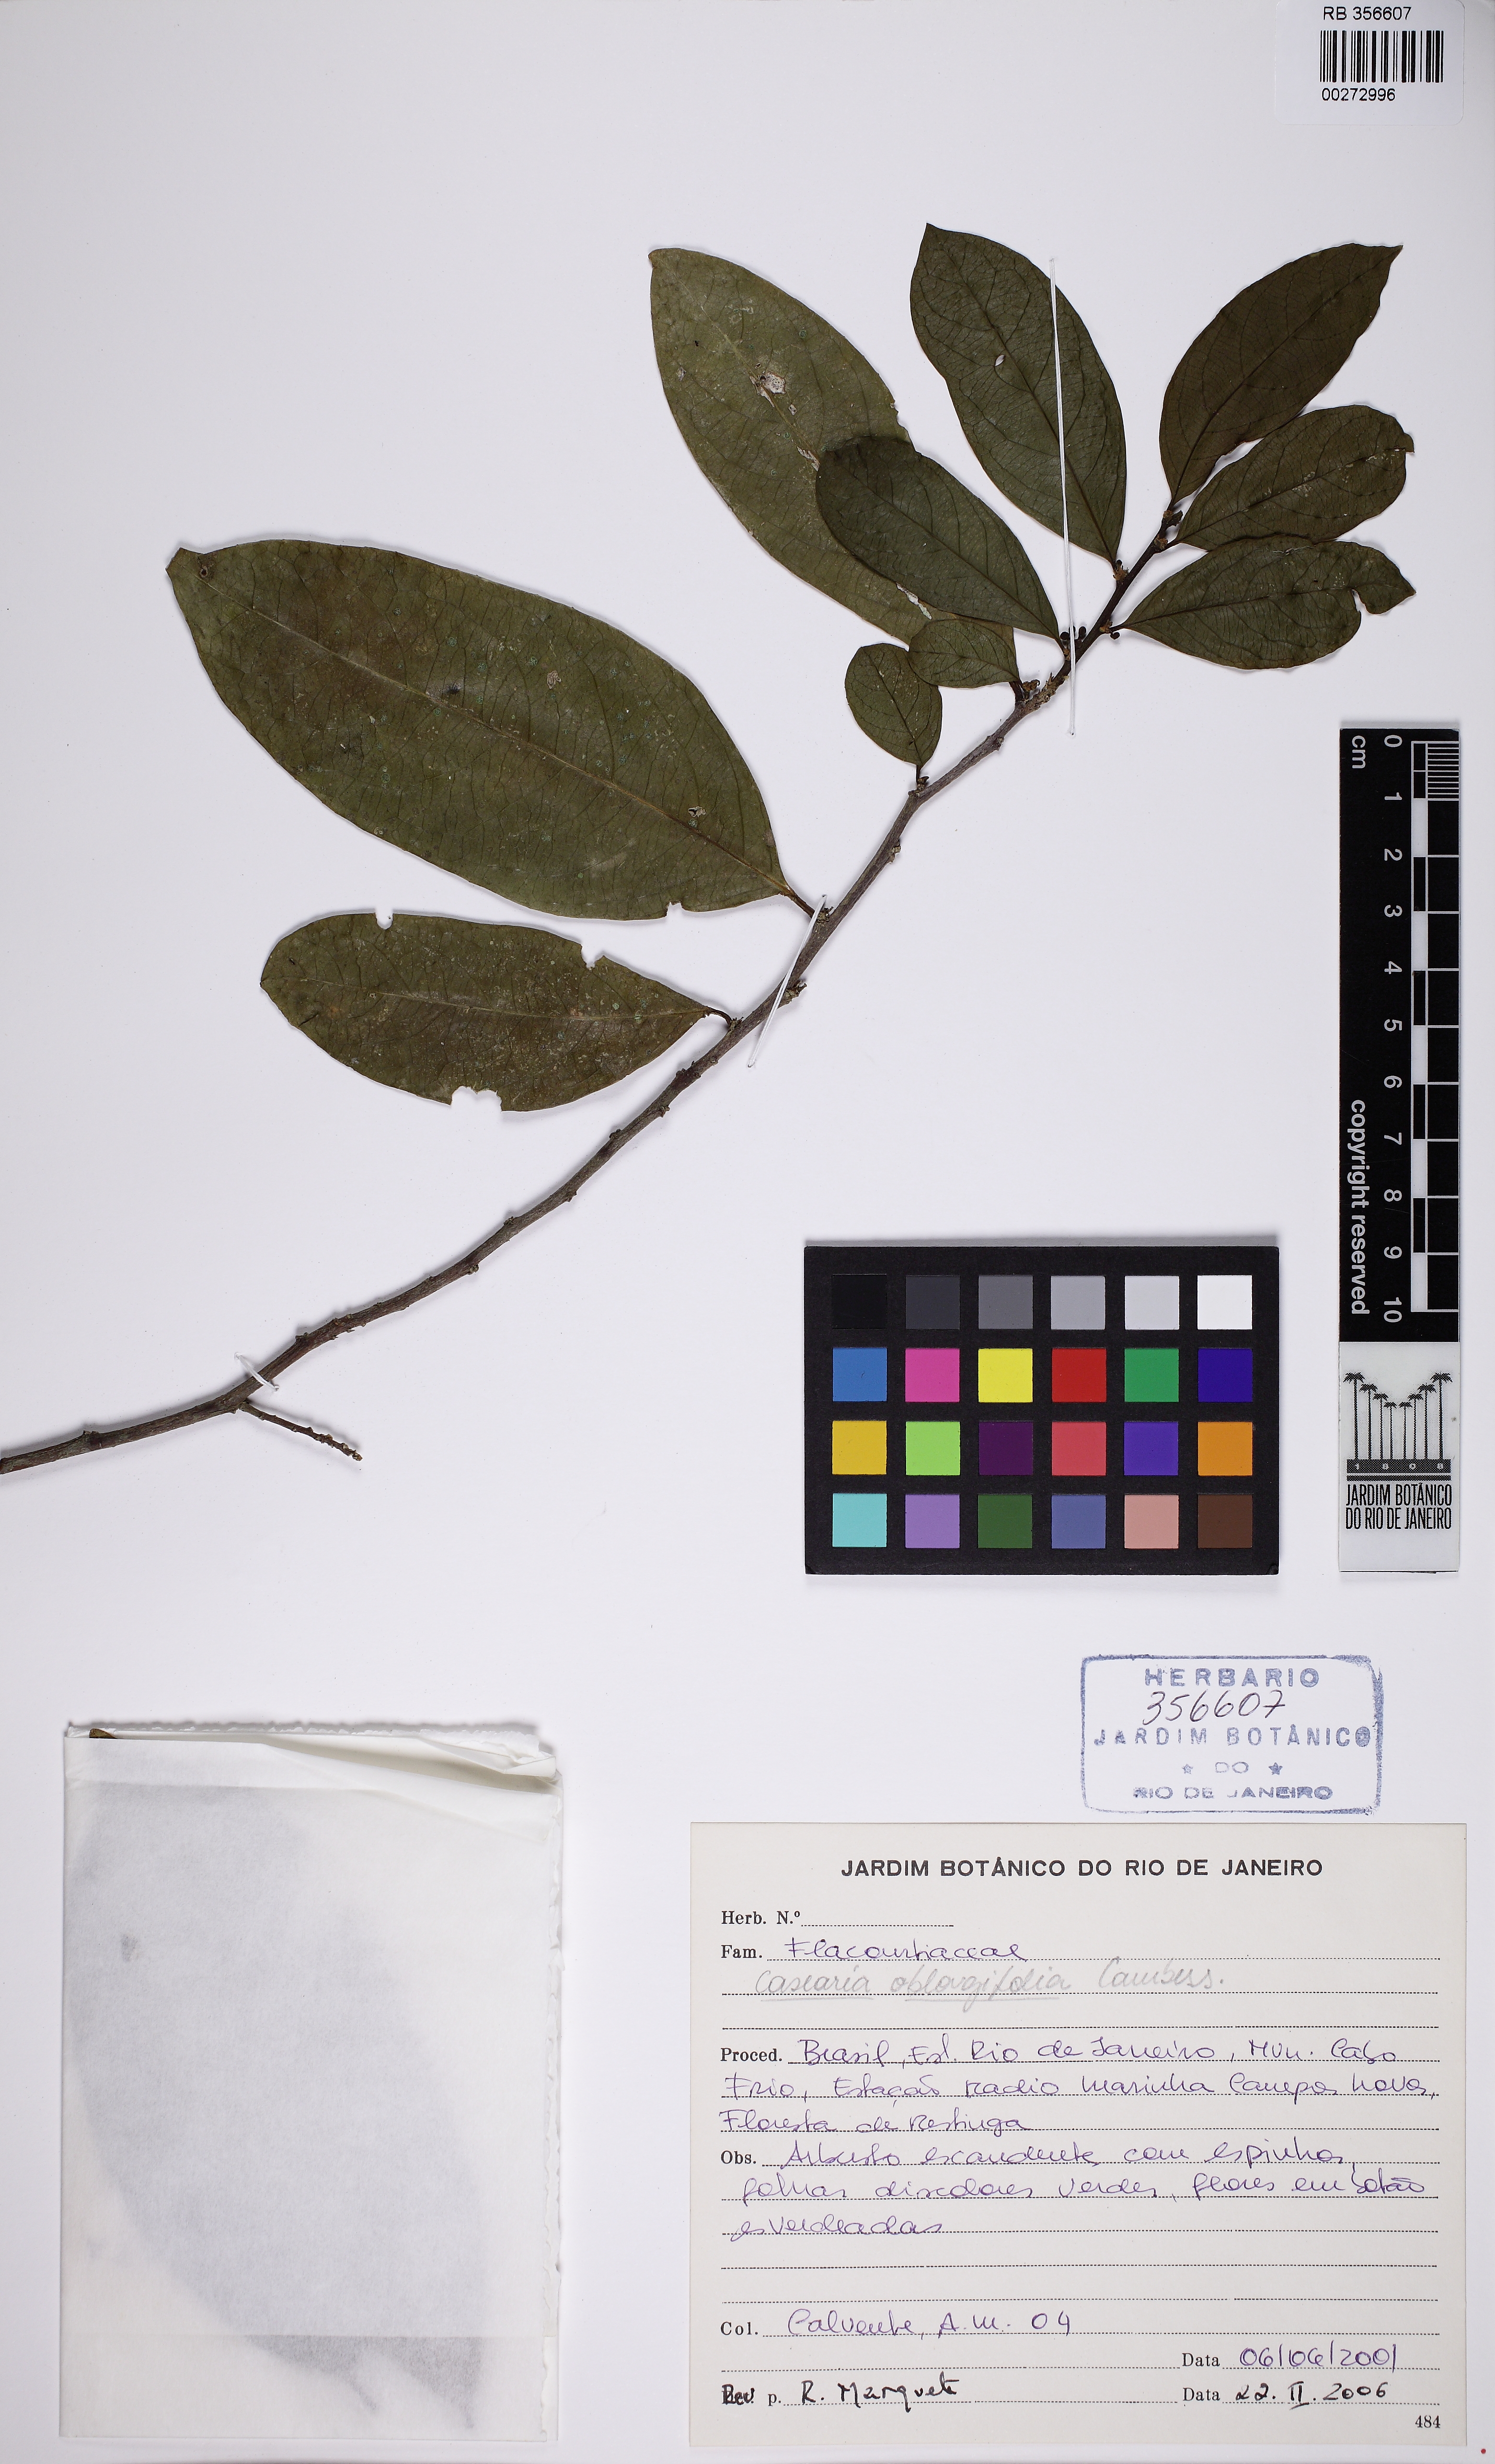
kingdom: Plantae
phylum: Tracheophyta
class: Magnoliopsida
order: Malpighiales
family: Salicaceae
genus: Casearia
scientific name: Casearia oblongifolia
